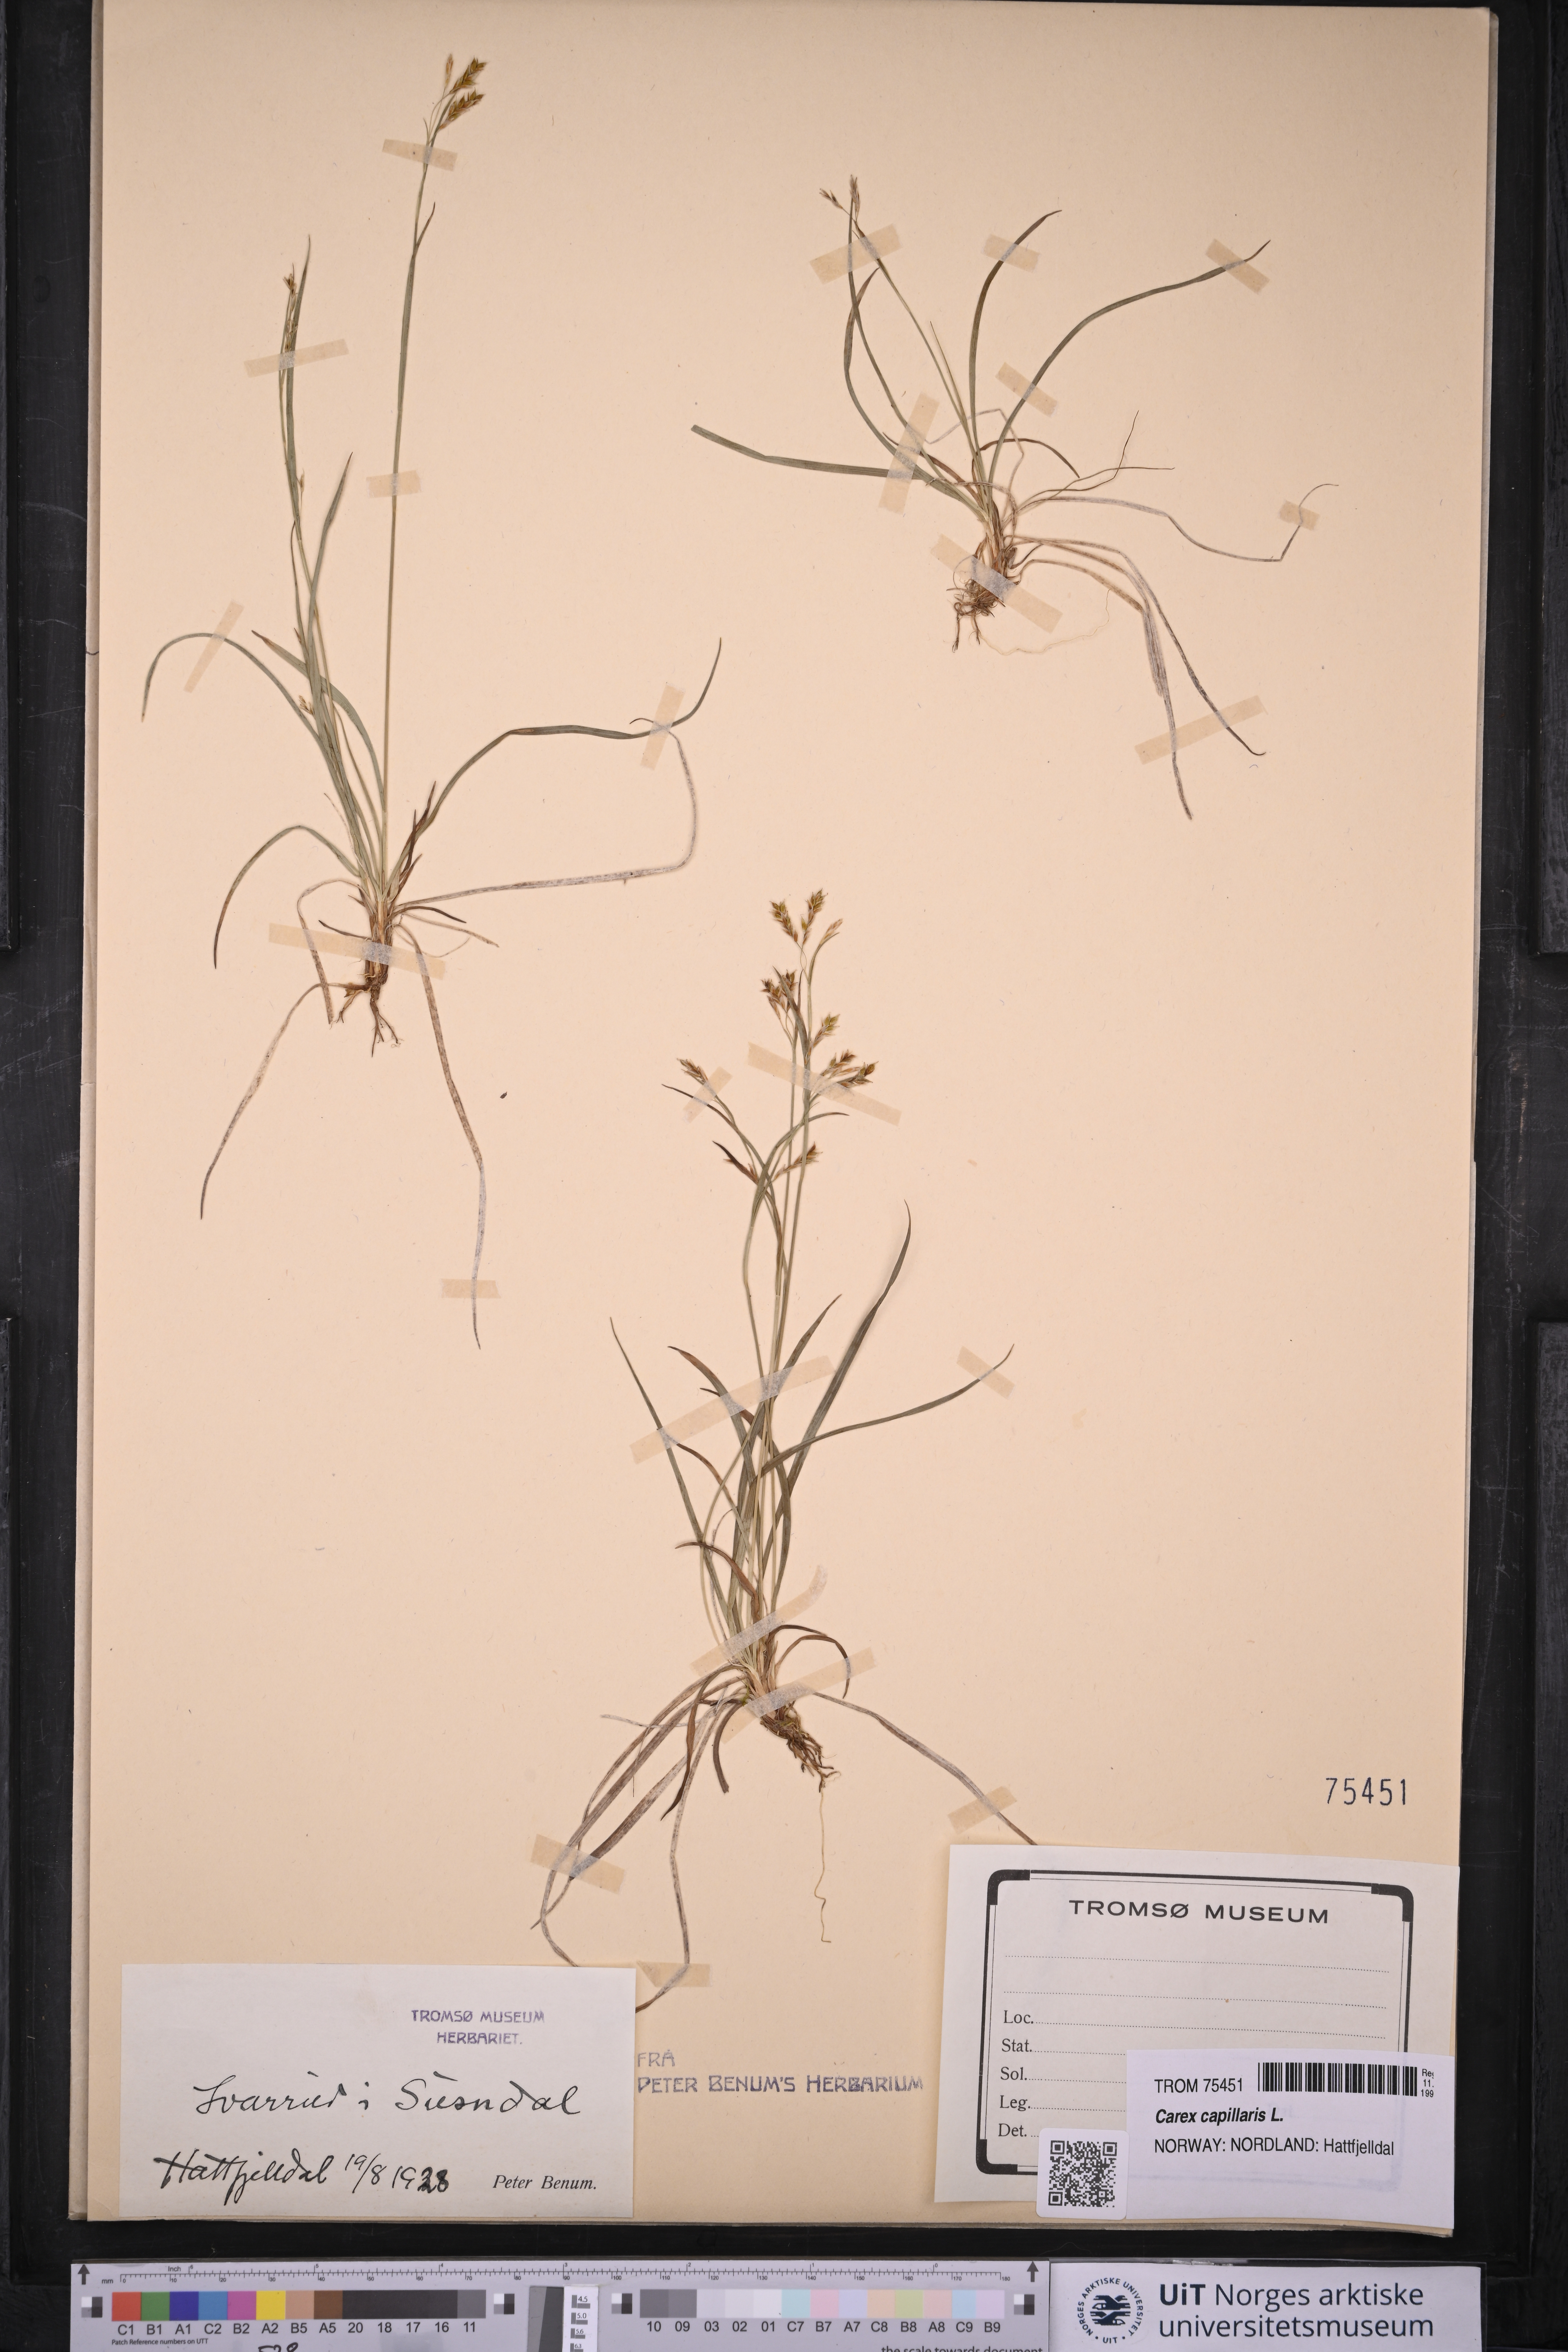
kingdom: Plantae
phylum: Tracheophyta
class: Liliopsida
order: Poales
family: Cyperaceae
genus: Carex
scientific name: Carex capillaris
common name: Hair sedge
